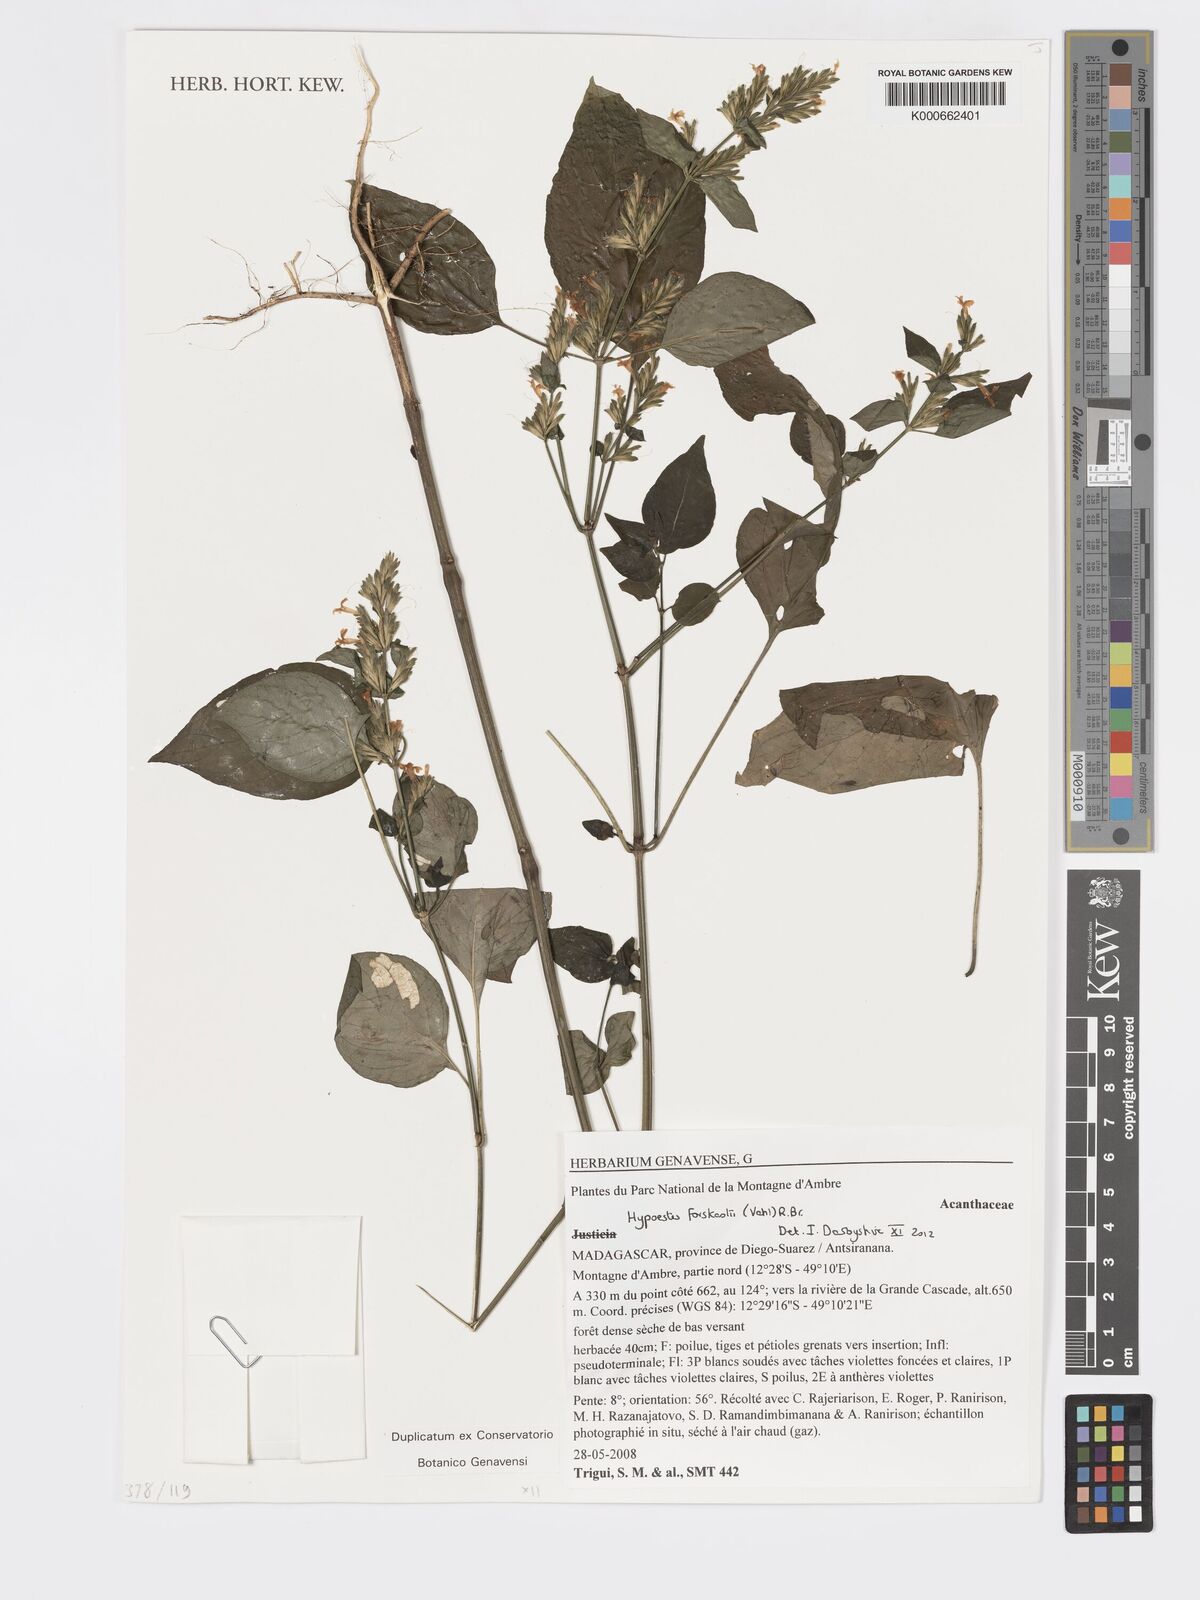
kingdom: Plantae
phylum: Tracheophyta
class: Magnoliopsida
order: Lamiales
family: Acanthaceae
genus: Hypoestes
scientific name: Hypoestes forskaolii
